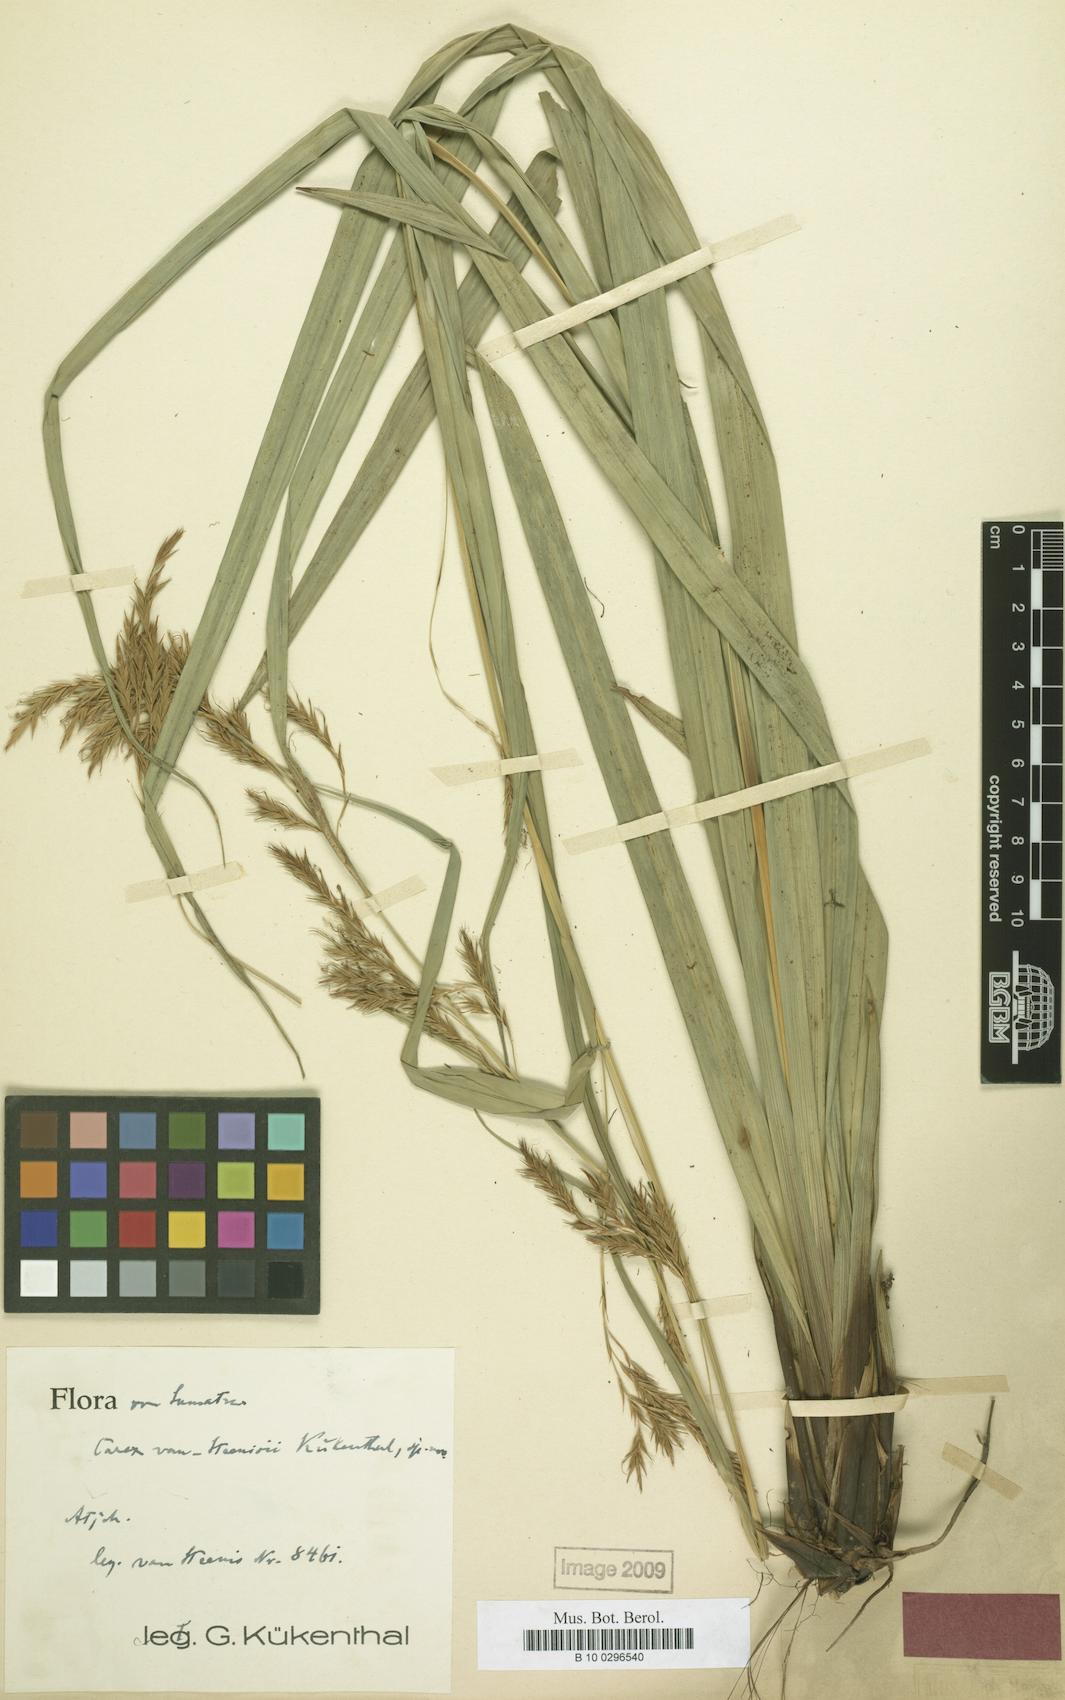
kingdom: Plantae
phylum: Tracheophyta
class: Liliopsida
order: Poales
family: Cyperaceae
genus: Carex
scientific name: Carex perakensis
